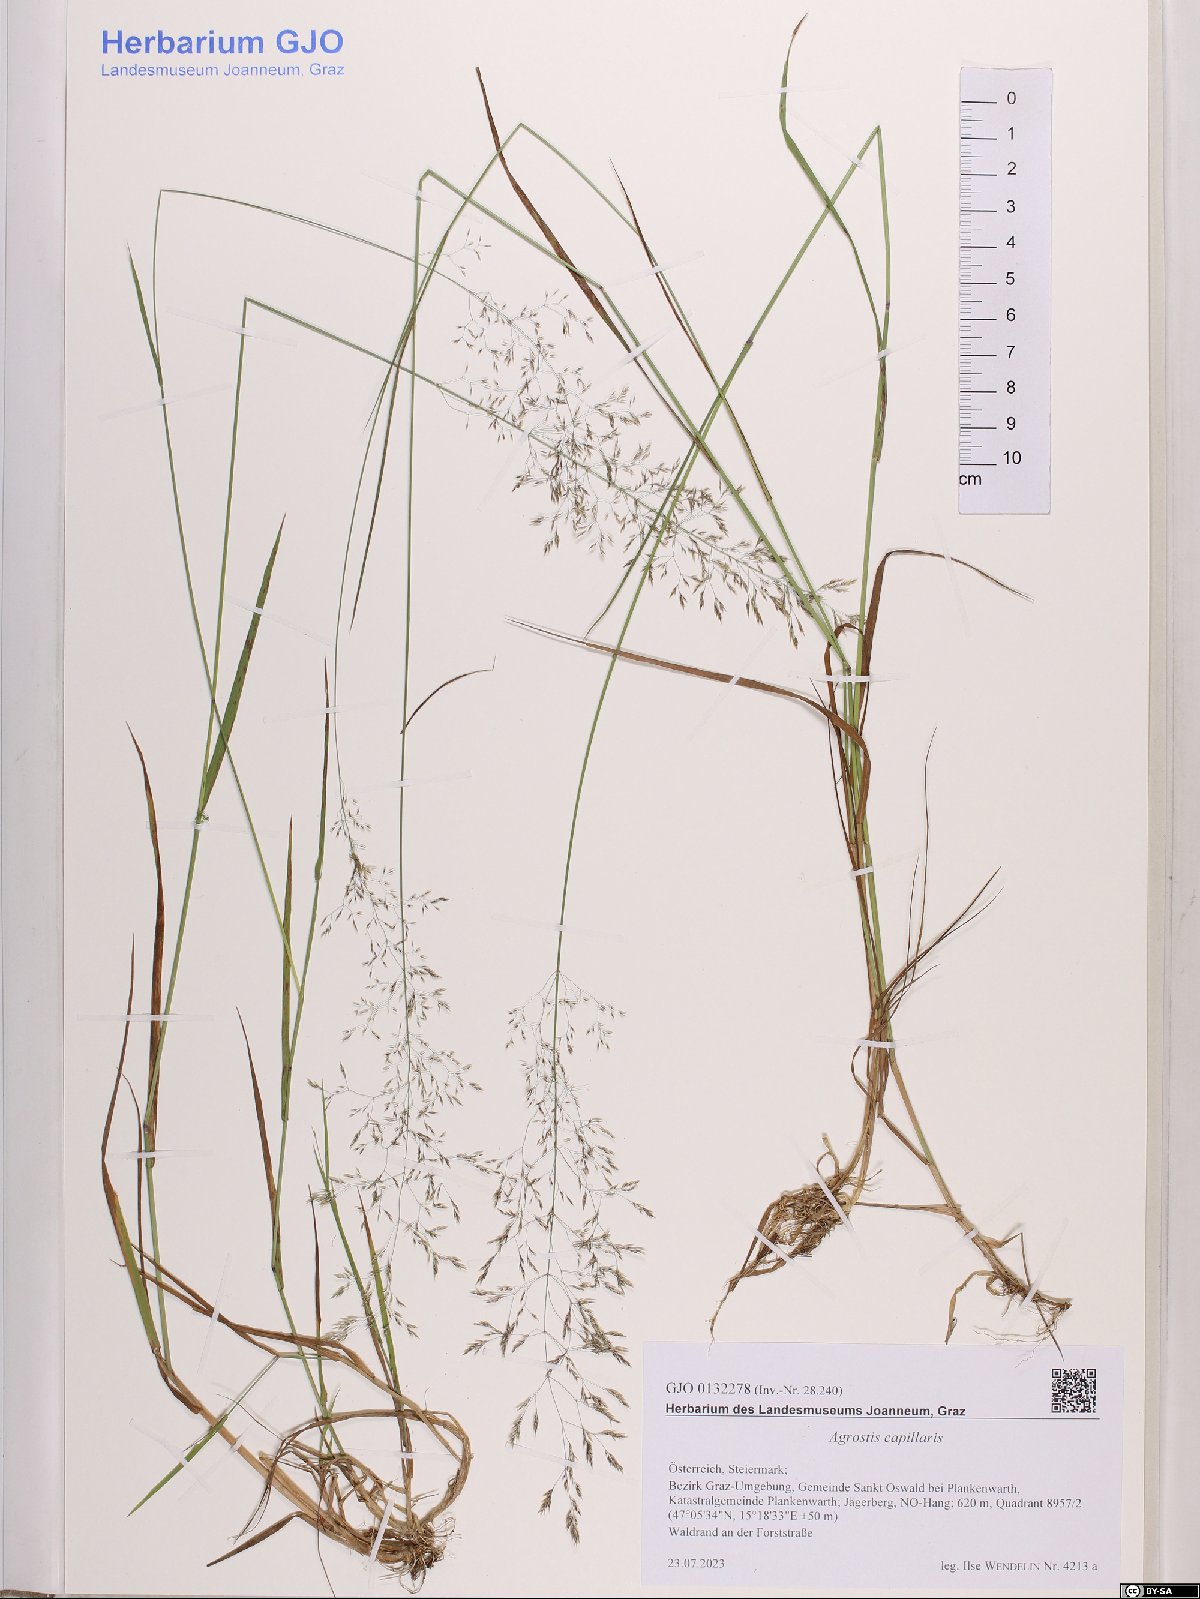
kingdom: Plantae
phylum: Tracheophyta
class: Liliopsida
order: Poales
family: Poaceae
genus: Agrostis
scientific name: Agrostis capillaris
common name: Colonial bentgrass
